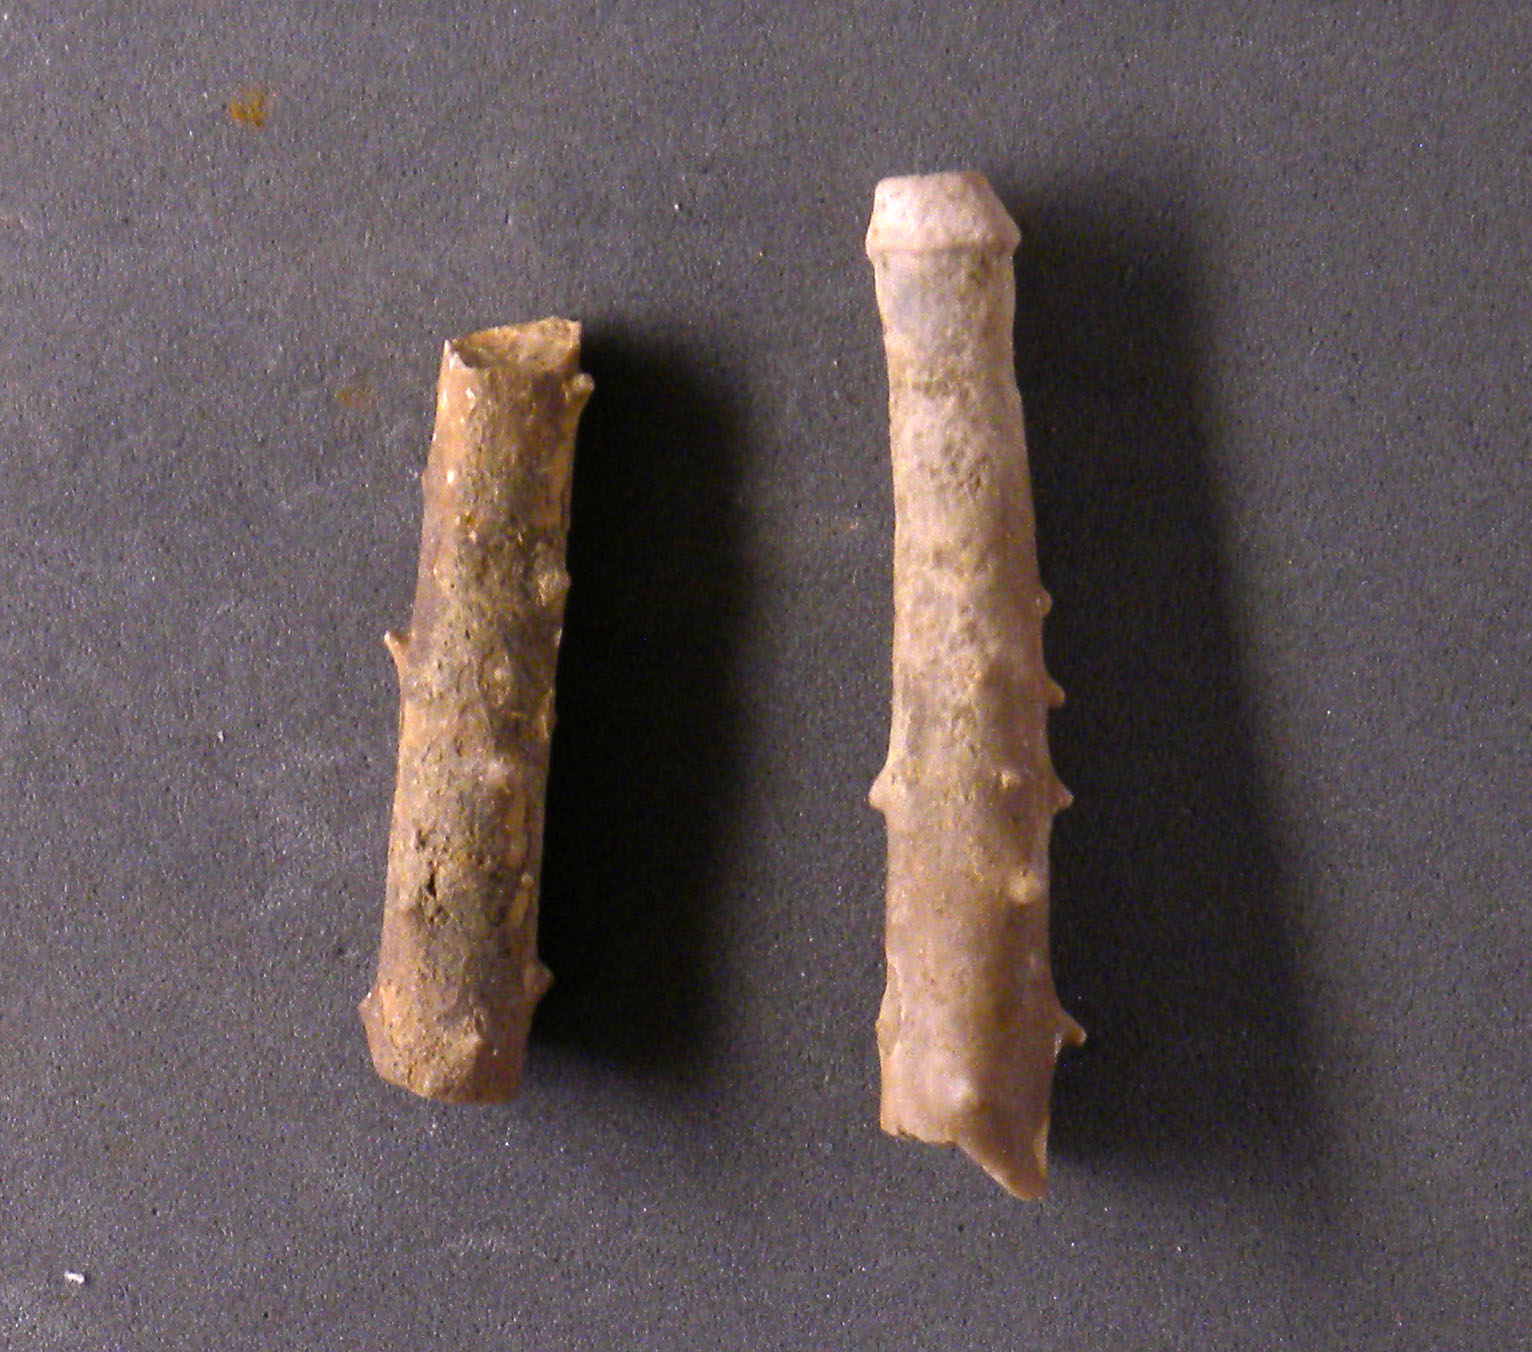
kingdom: Animalia
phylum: Echinodermata
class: Echinoidea
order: Cidaroida
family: Polycidaridae
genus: Polycidaris
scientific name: Polycidaris
